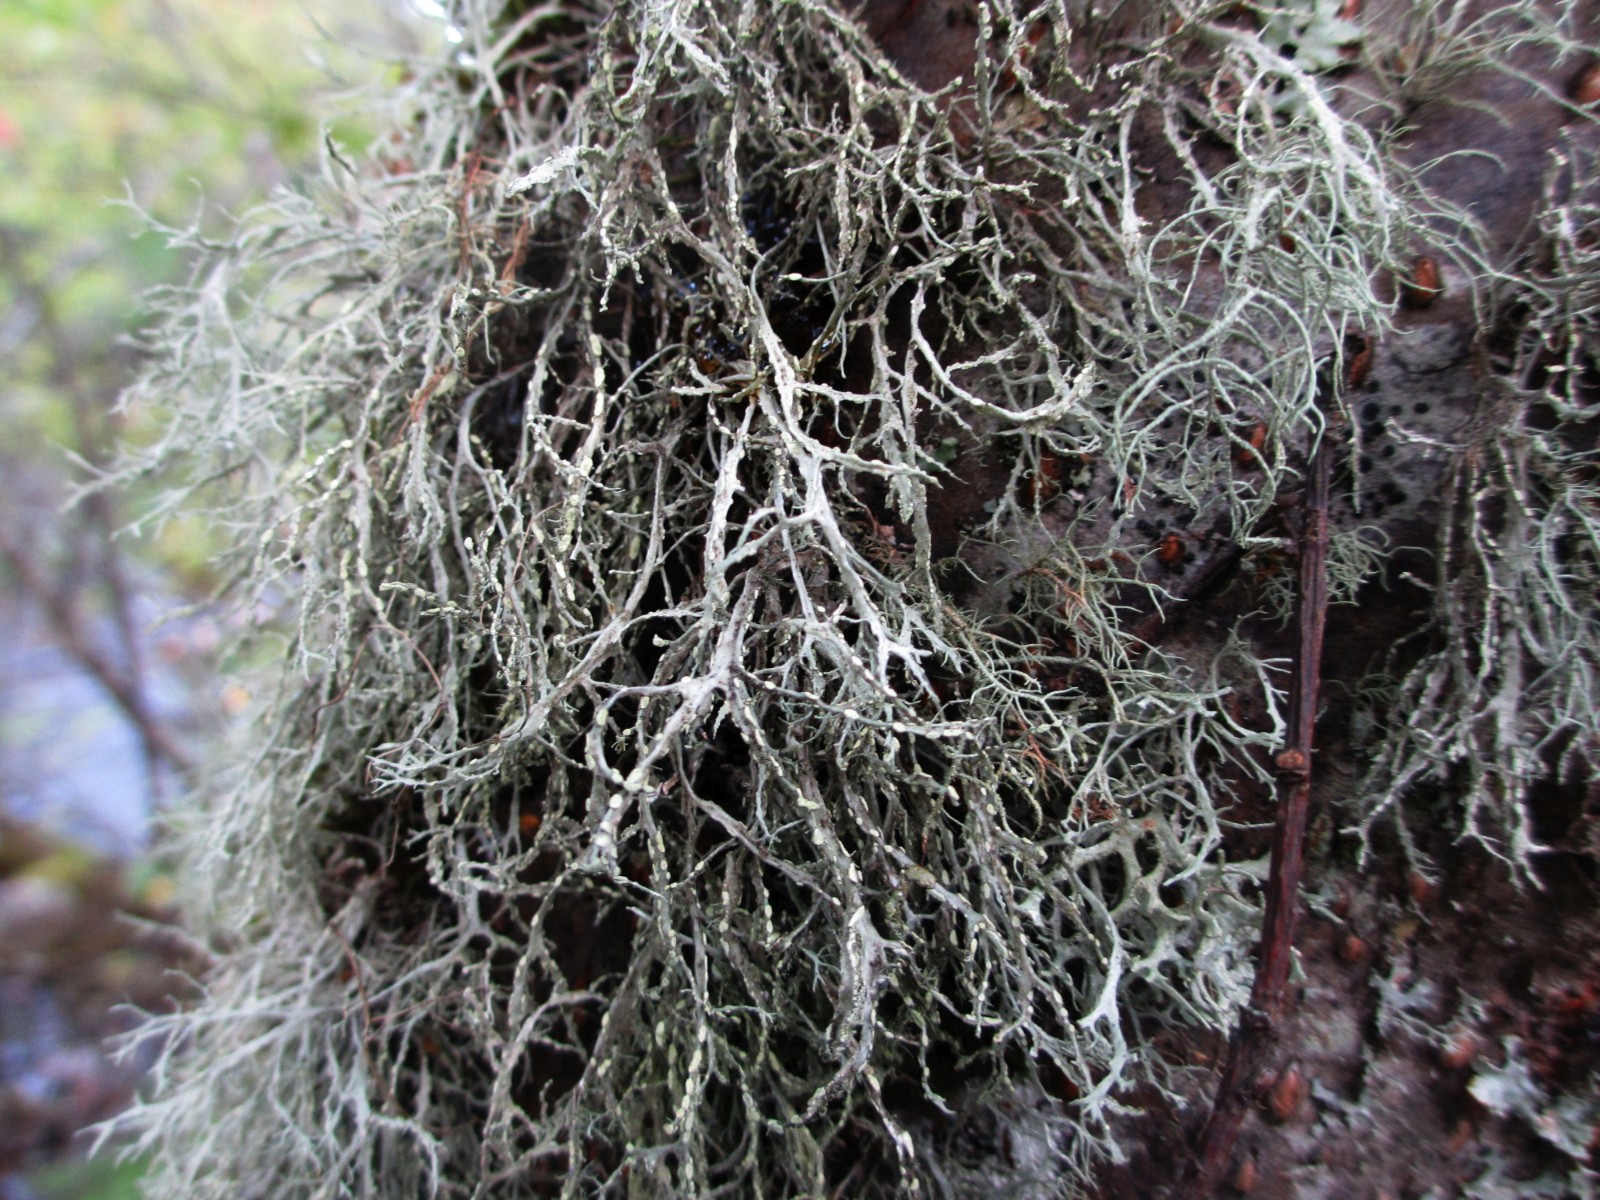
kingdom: Fungi
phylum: Ascomycota
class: Lecanoromycetes
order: Lecanorales
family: Ramalinaceae
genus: Ramalina
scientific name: Ramalina farinacea
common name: melet grenlav
